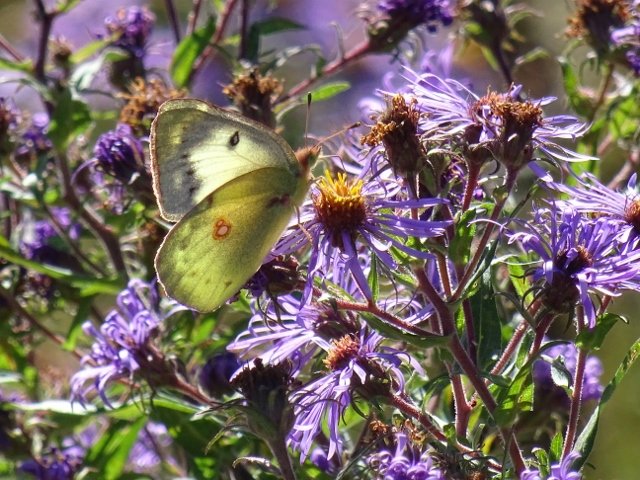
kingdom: Animalia
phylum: Arthropoda
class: Insecta
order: Lepidoptera
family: Pieridae
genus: Colias
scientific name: Colias philodice
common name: Clouded Sulphur
